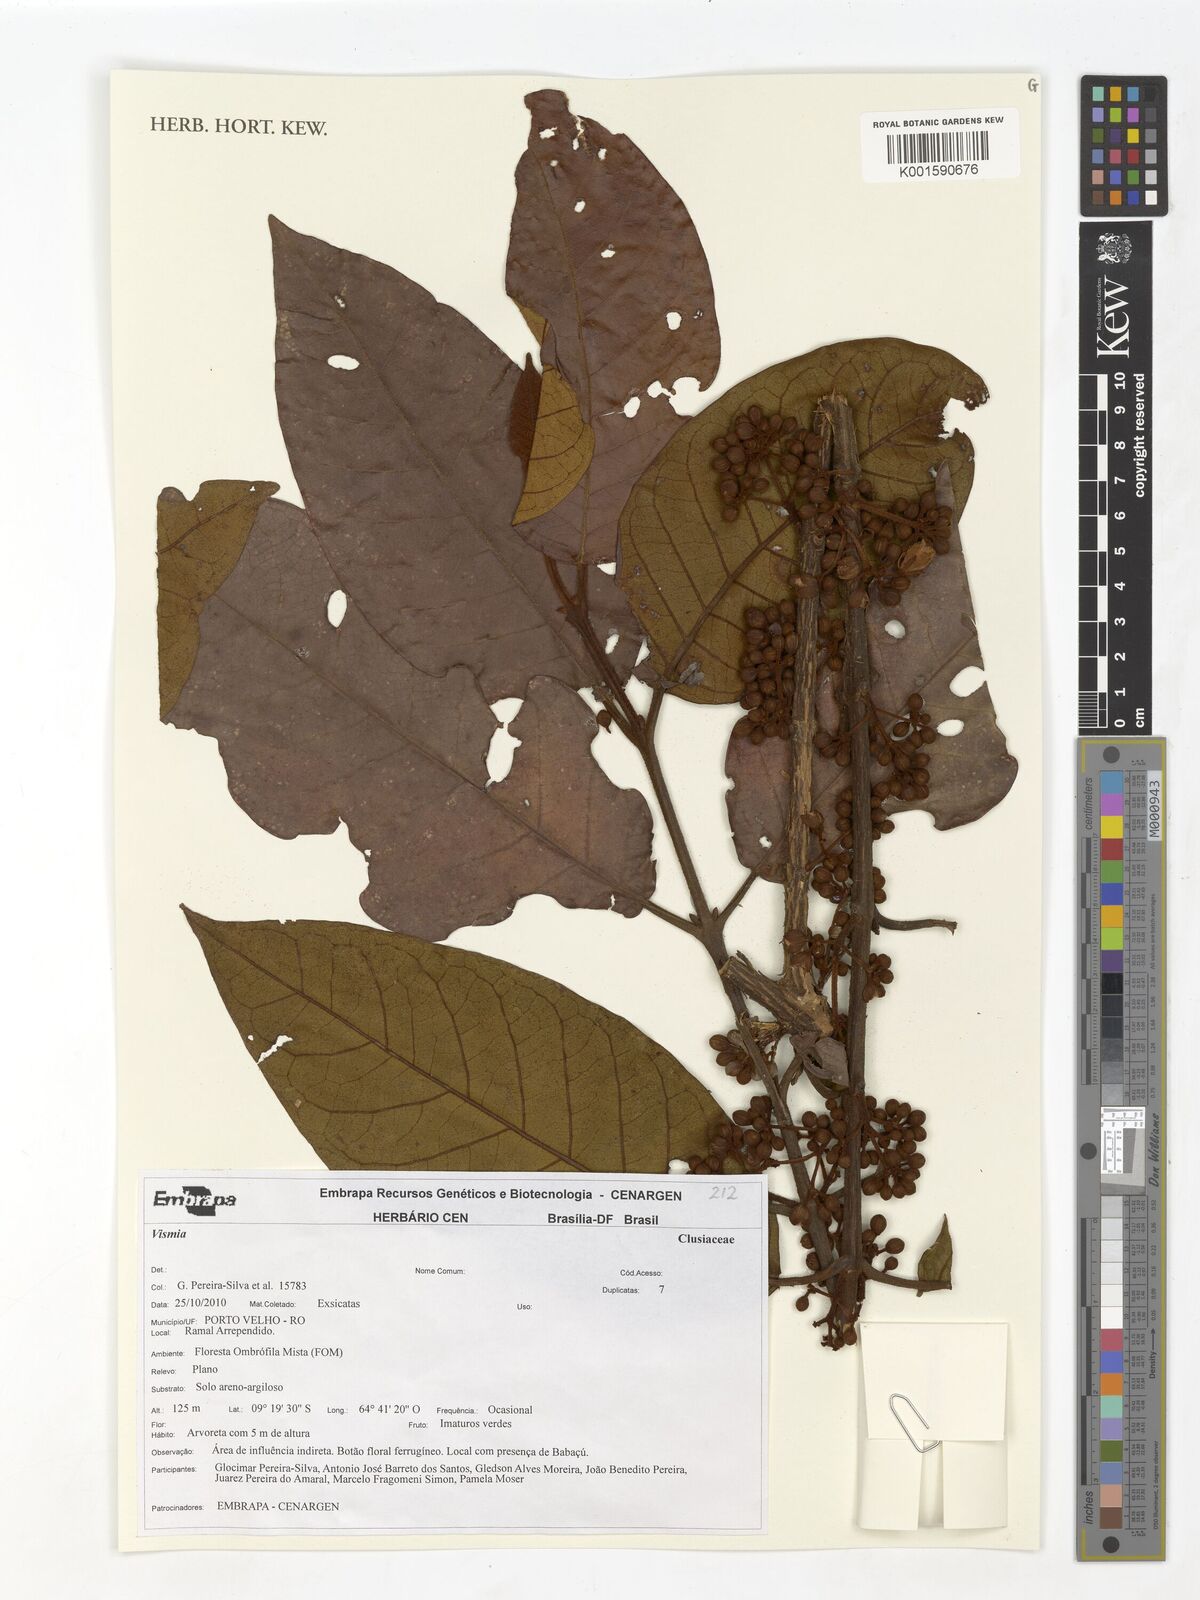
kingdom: Plantae
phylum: Tracheophyta
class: Magnoliopsida
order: Malpighiales
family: Hypericaceae
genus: Vismia
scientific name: Vismia
